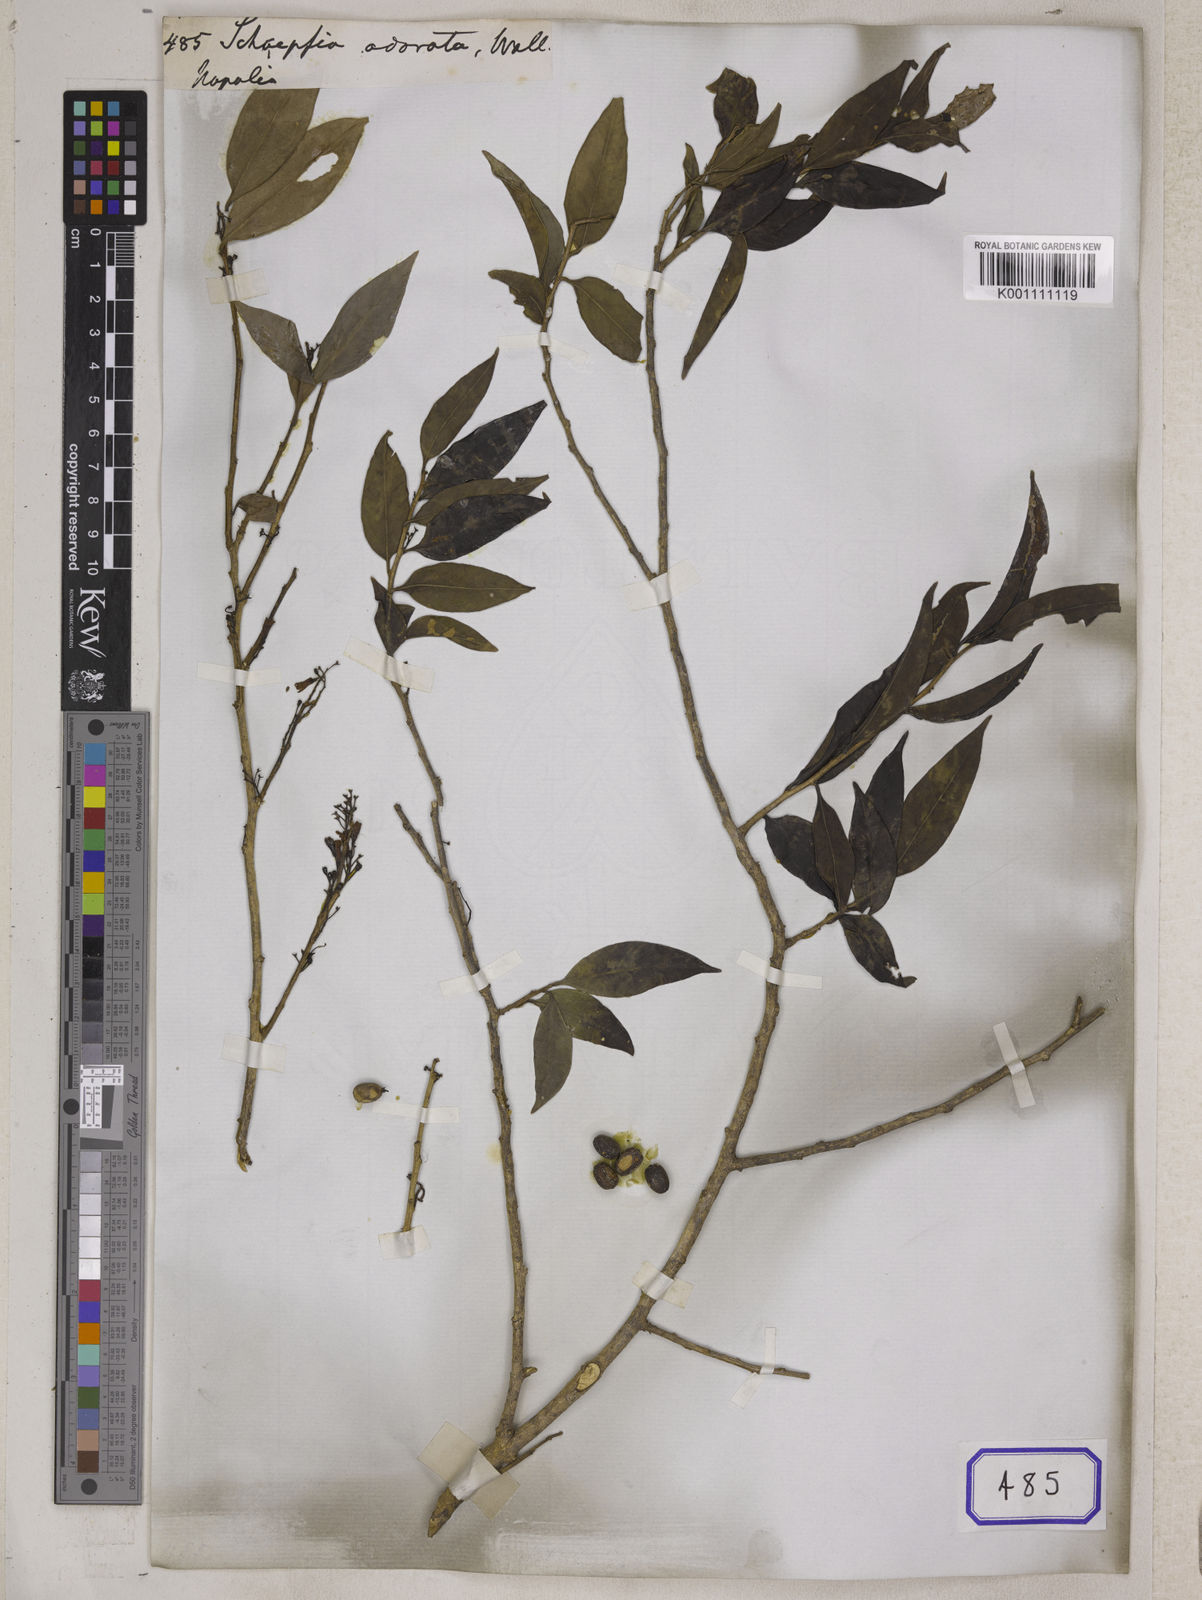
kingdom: Plantae
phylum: Tracheophyta
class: Magnoliopsida
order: Santalales
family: Schoepfiaceae
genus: Schoepfia
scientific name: Schoepfia fragrans
